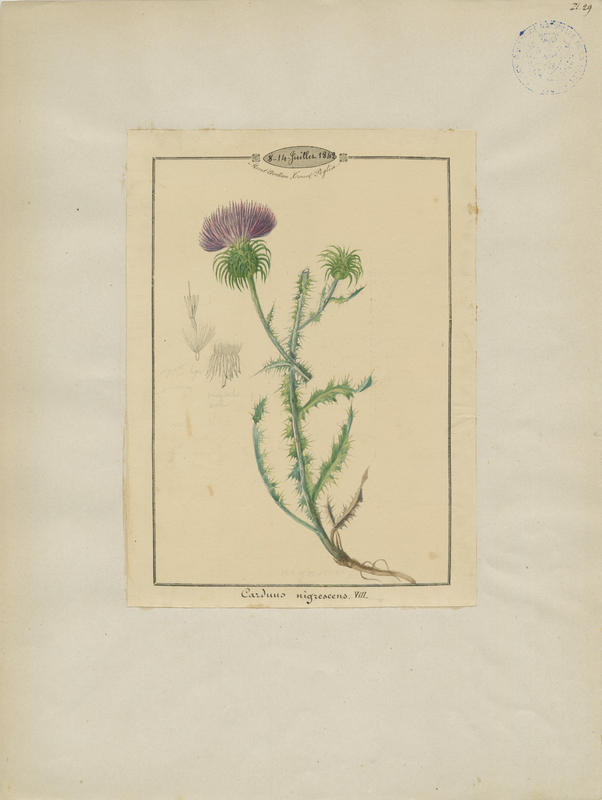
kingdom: Plantae
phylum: Tracheophyta
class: Magnoliopsida
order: Asterales
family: Asteraceae
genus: Carduus
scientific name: Carduus nigrescens
